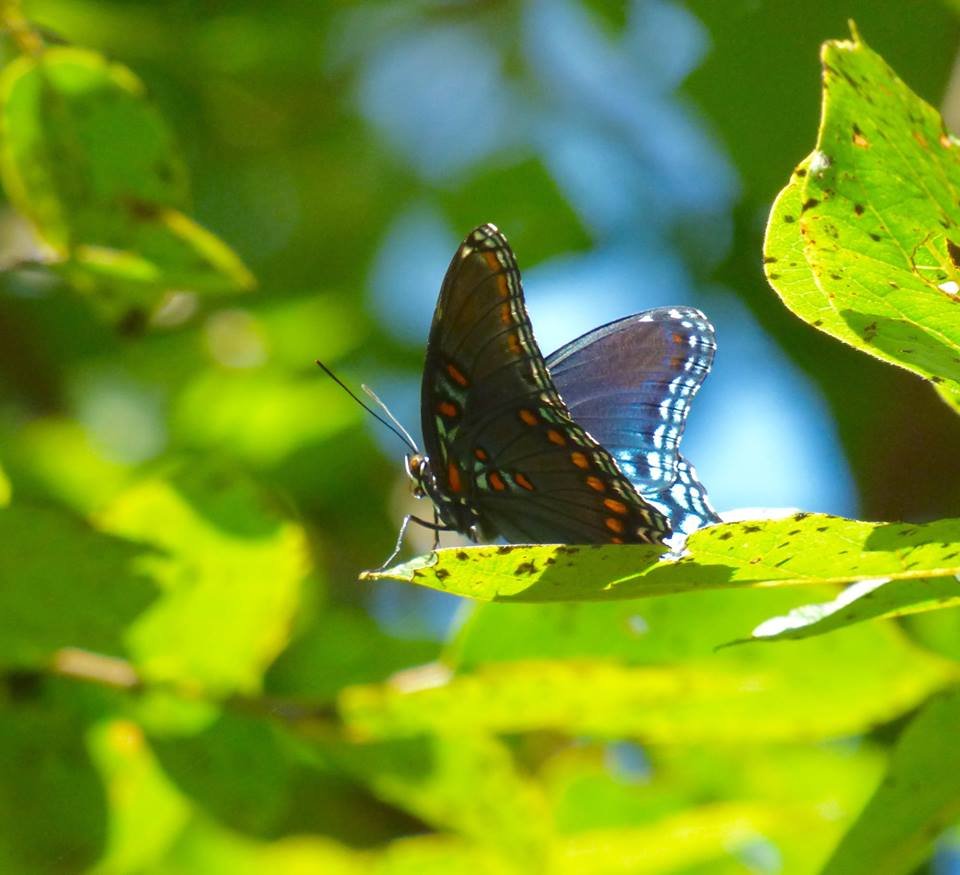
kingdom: Animalia
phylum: Arthropoda
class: Insecta
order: Lepidoptera
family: Nymphalidae
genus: Limenitis
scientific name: Limenitis astyanax
